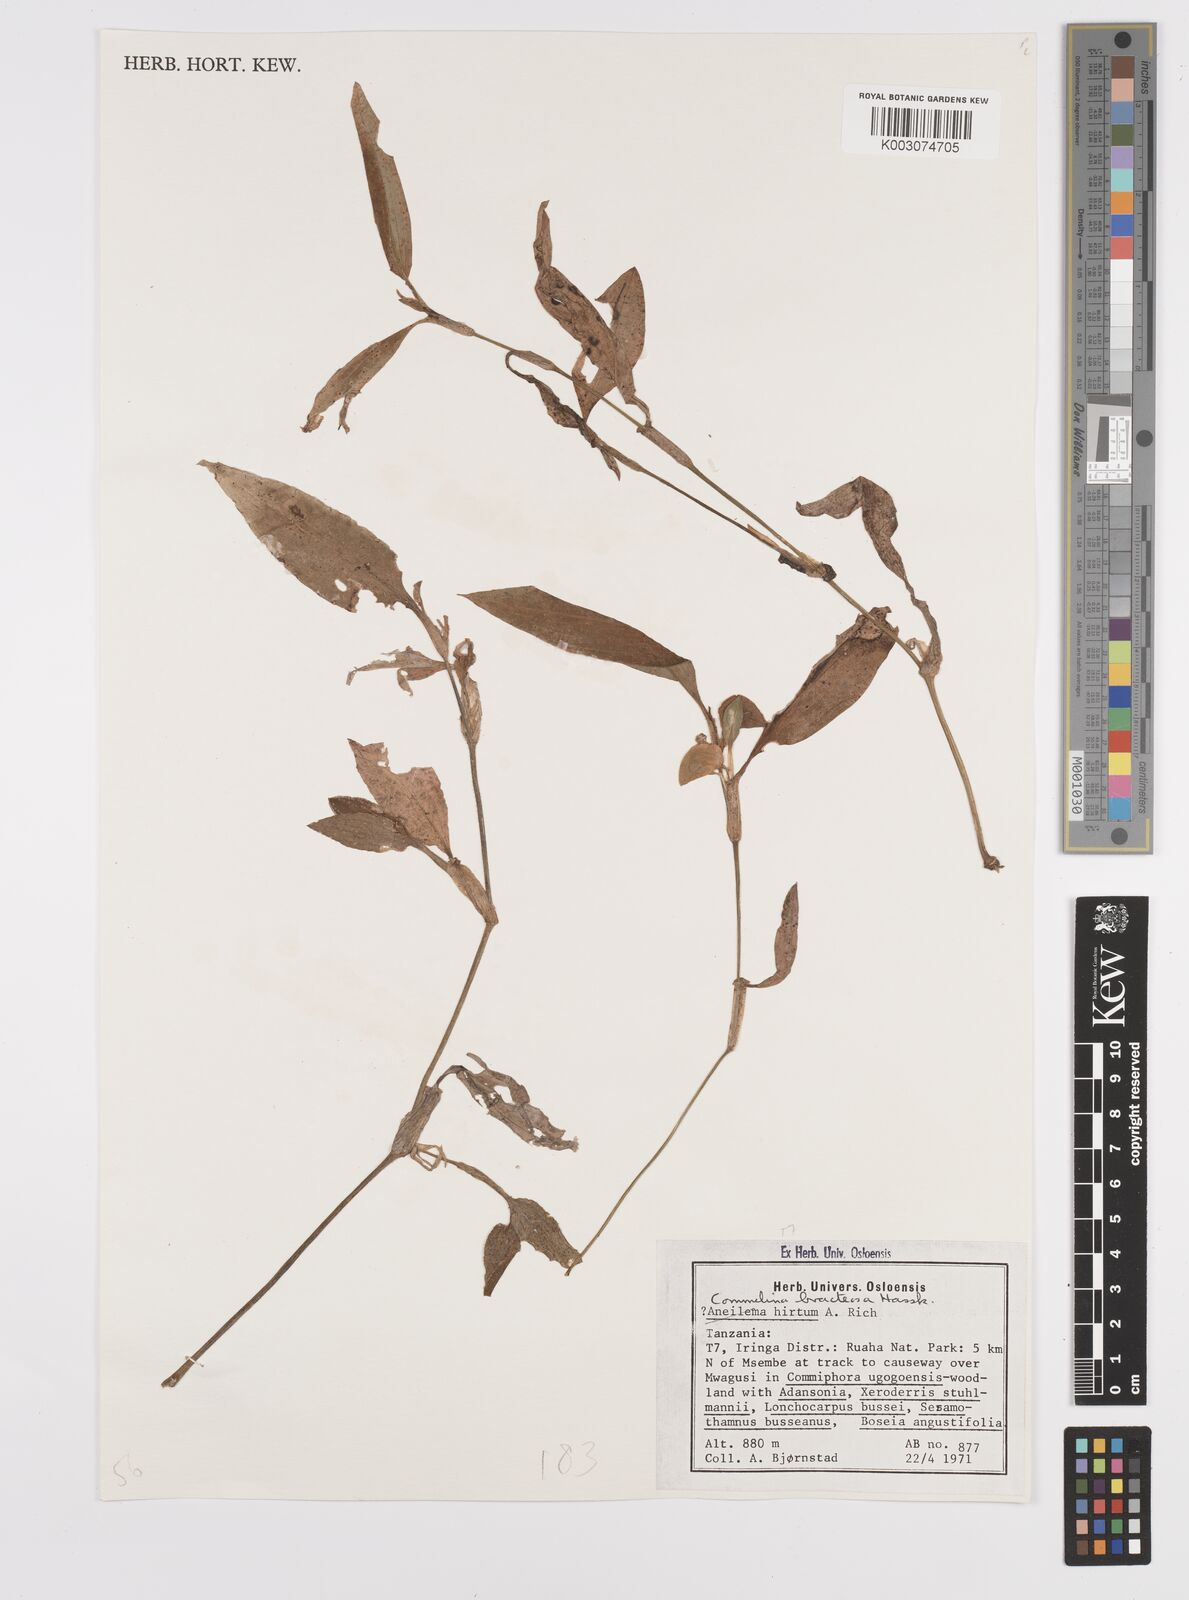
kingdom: Plantae
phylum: Tracheophyta
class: Liliopsida
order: Commelinales
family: Commelinaceae
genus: Commelina
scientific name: Commelina bracteosa
